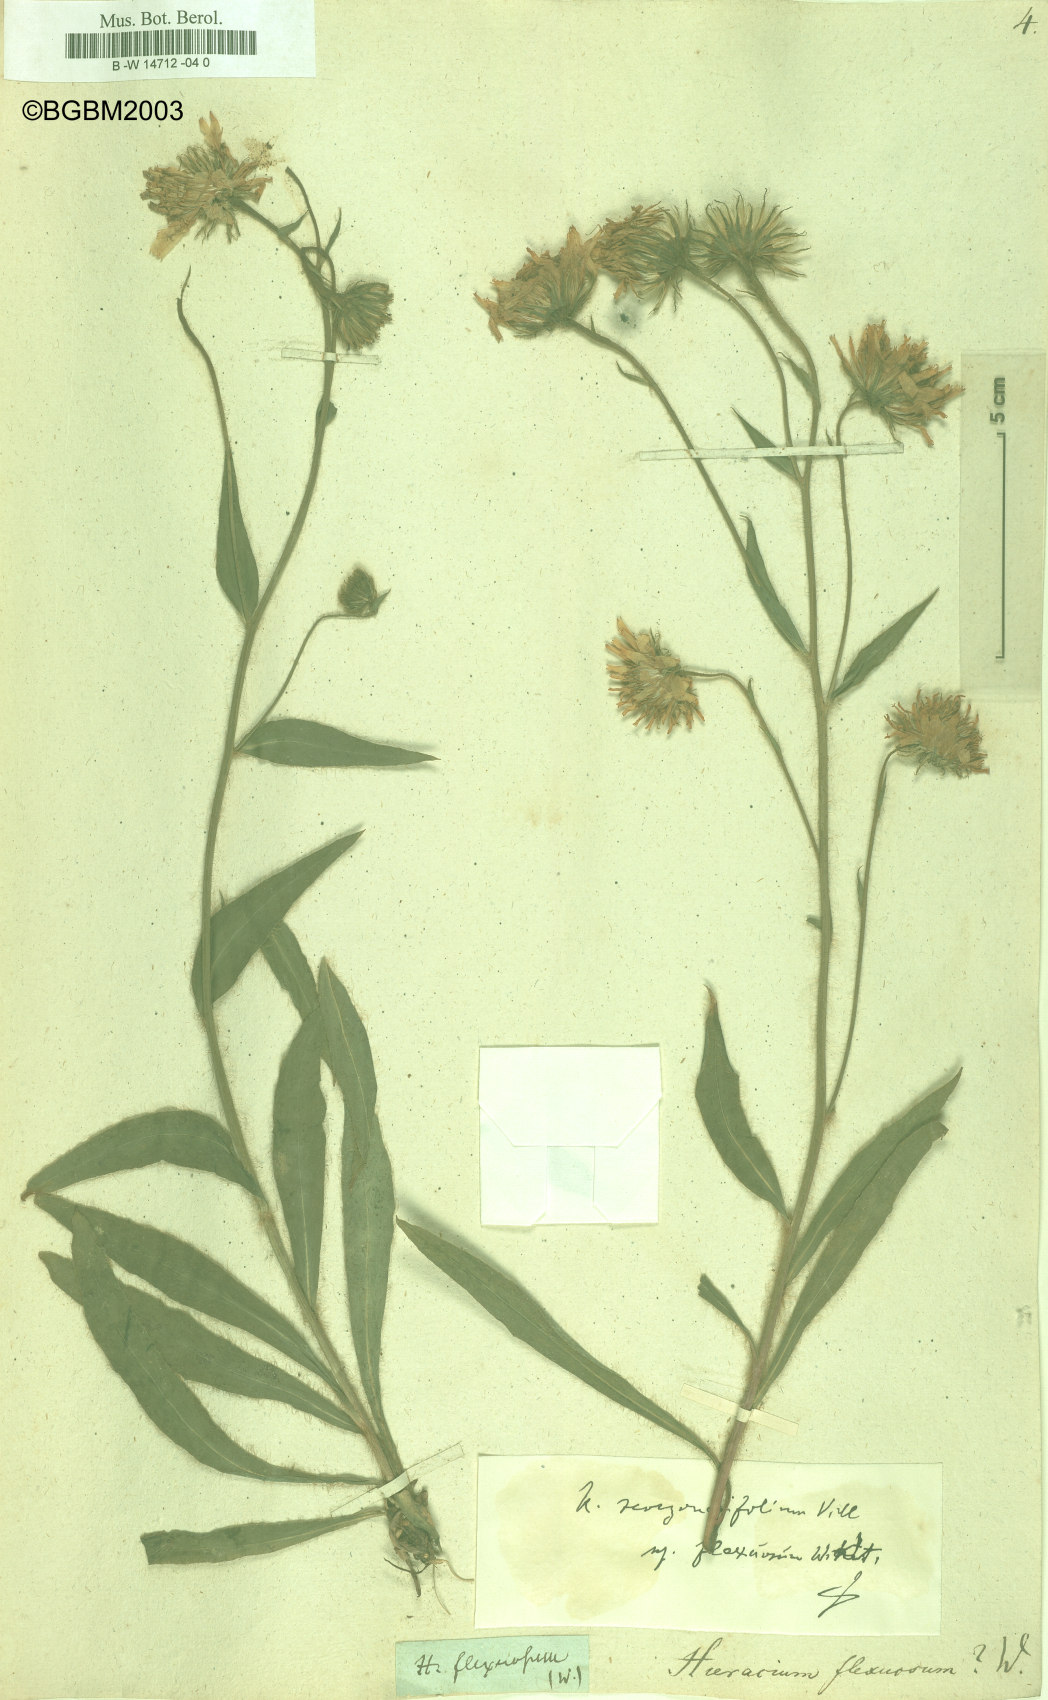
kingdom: Plantae
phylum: Tracheophyta
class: Magnoliopsida
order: Asterales
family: Asteraceae
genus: Hieracium
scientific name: Hieracium scorzonerifolium
